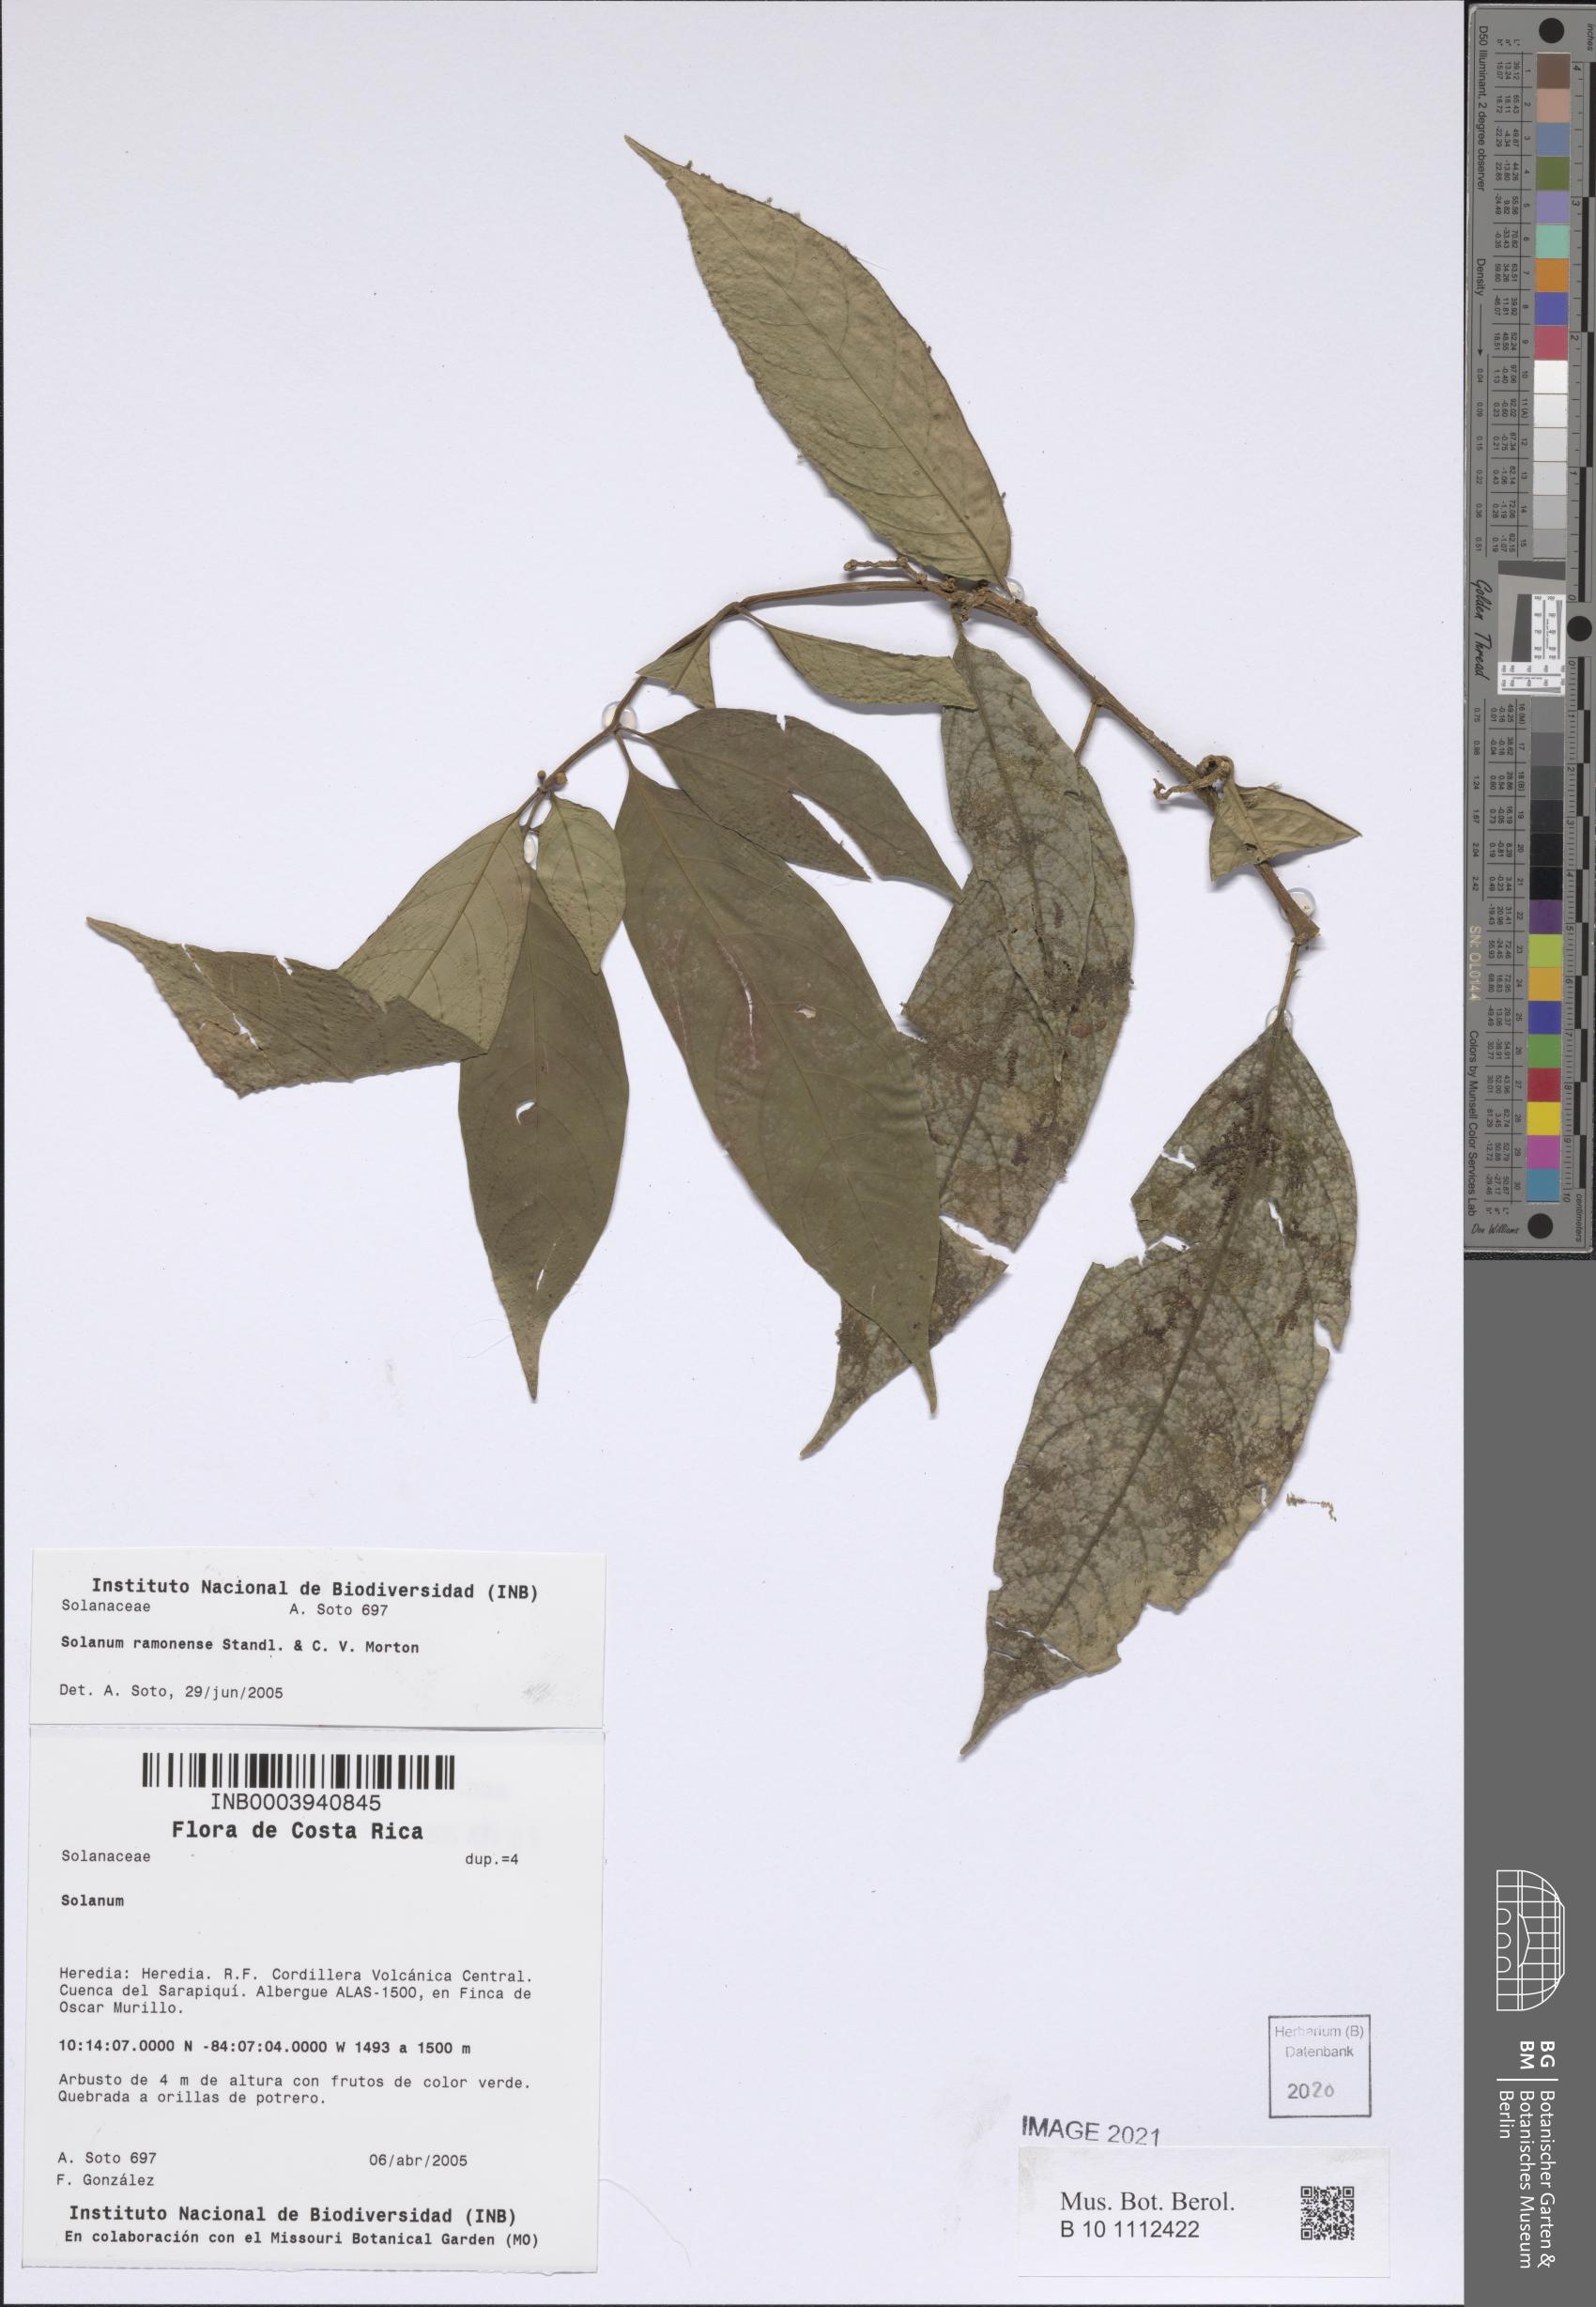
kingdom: Plantae
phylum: Tracheophyta
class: Magnoliopsida
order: Solanales
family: Solanaceae
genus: Solanum
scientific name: Solanum ramonense
